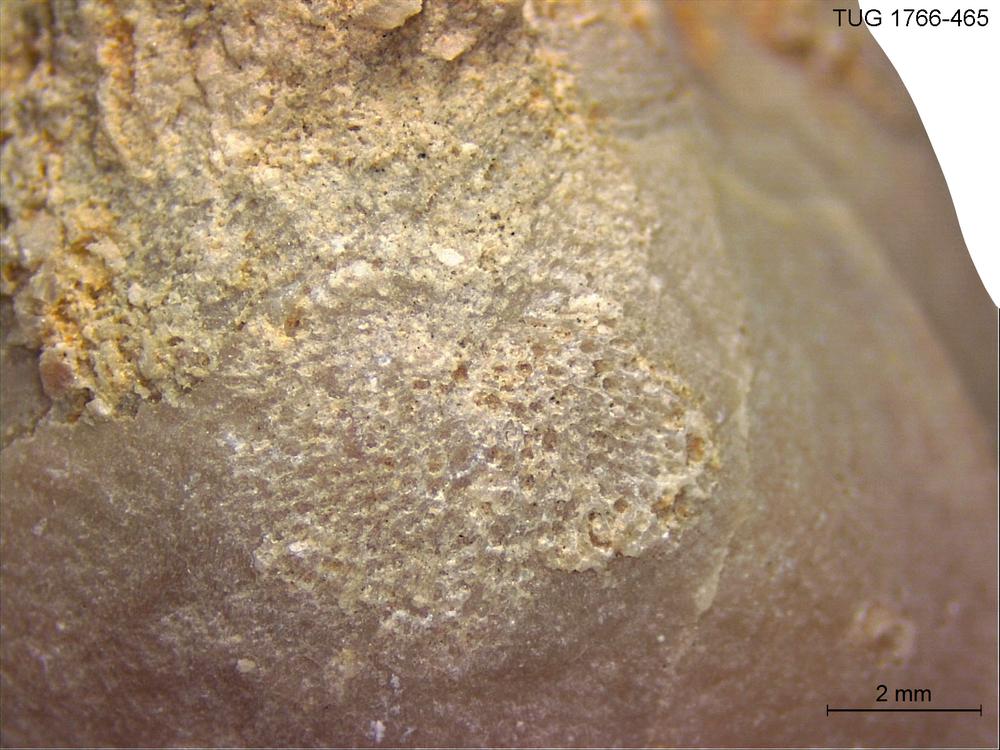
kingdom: Animalia
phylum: Bryozoa
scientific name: Bryozoa
